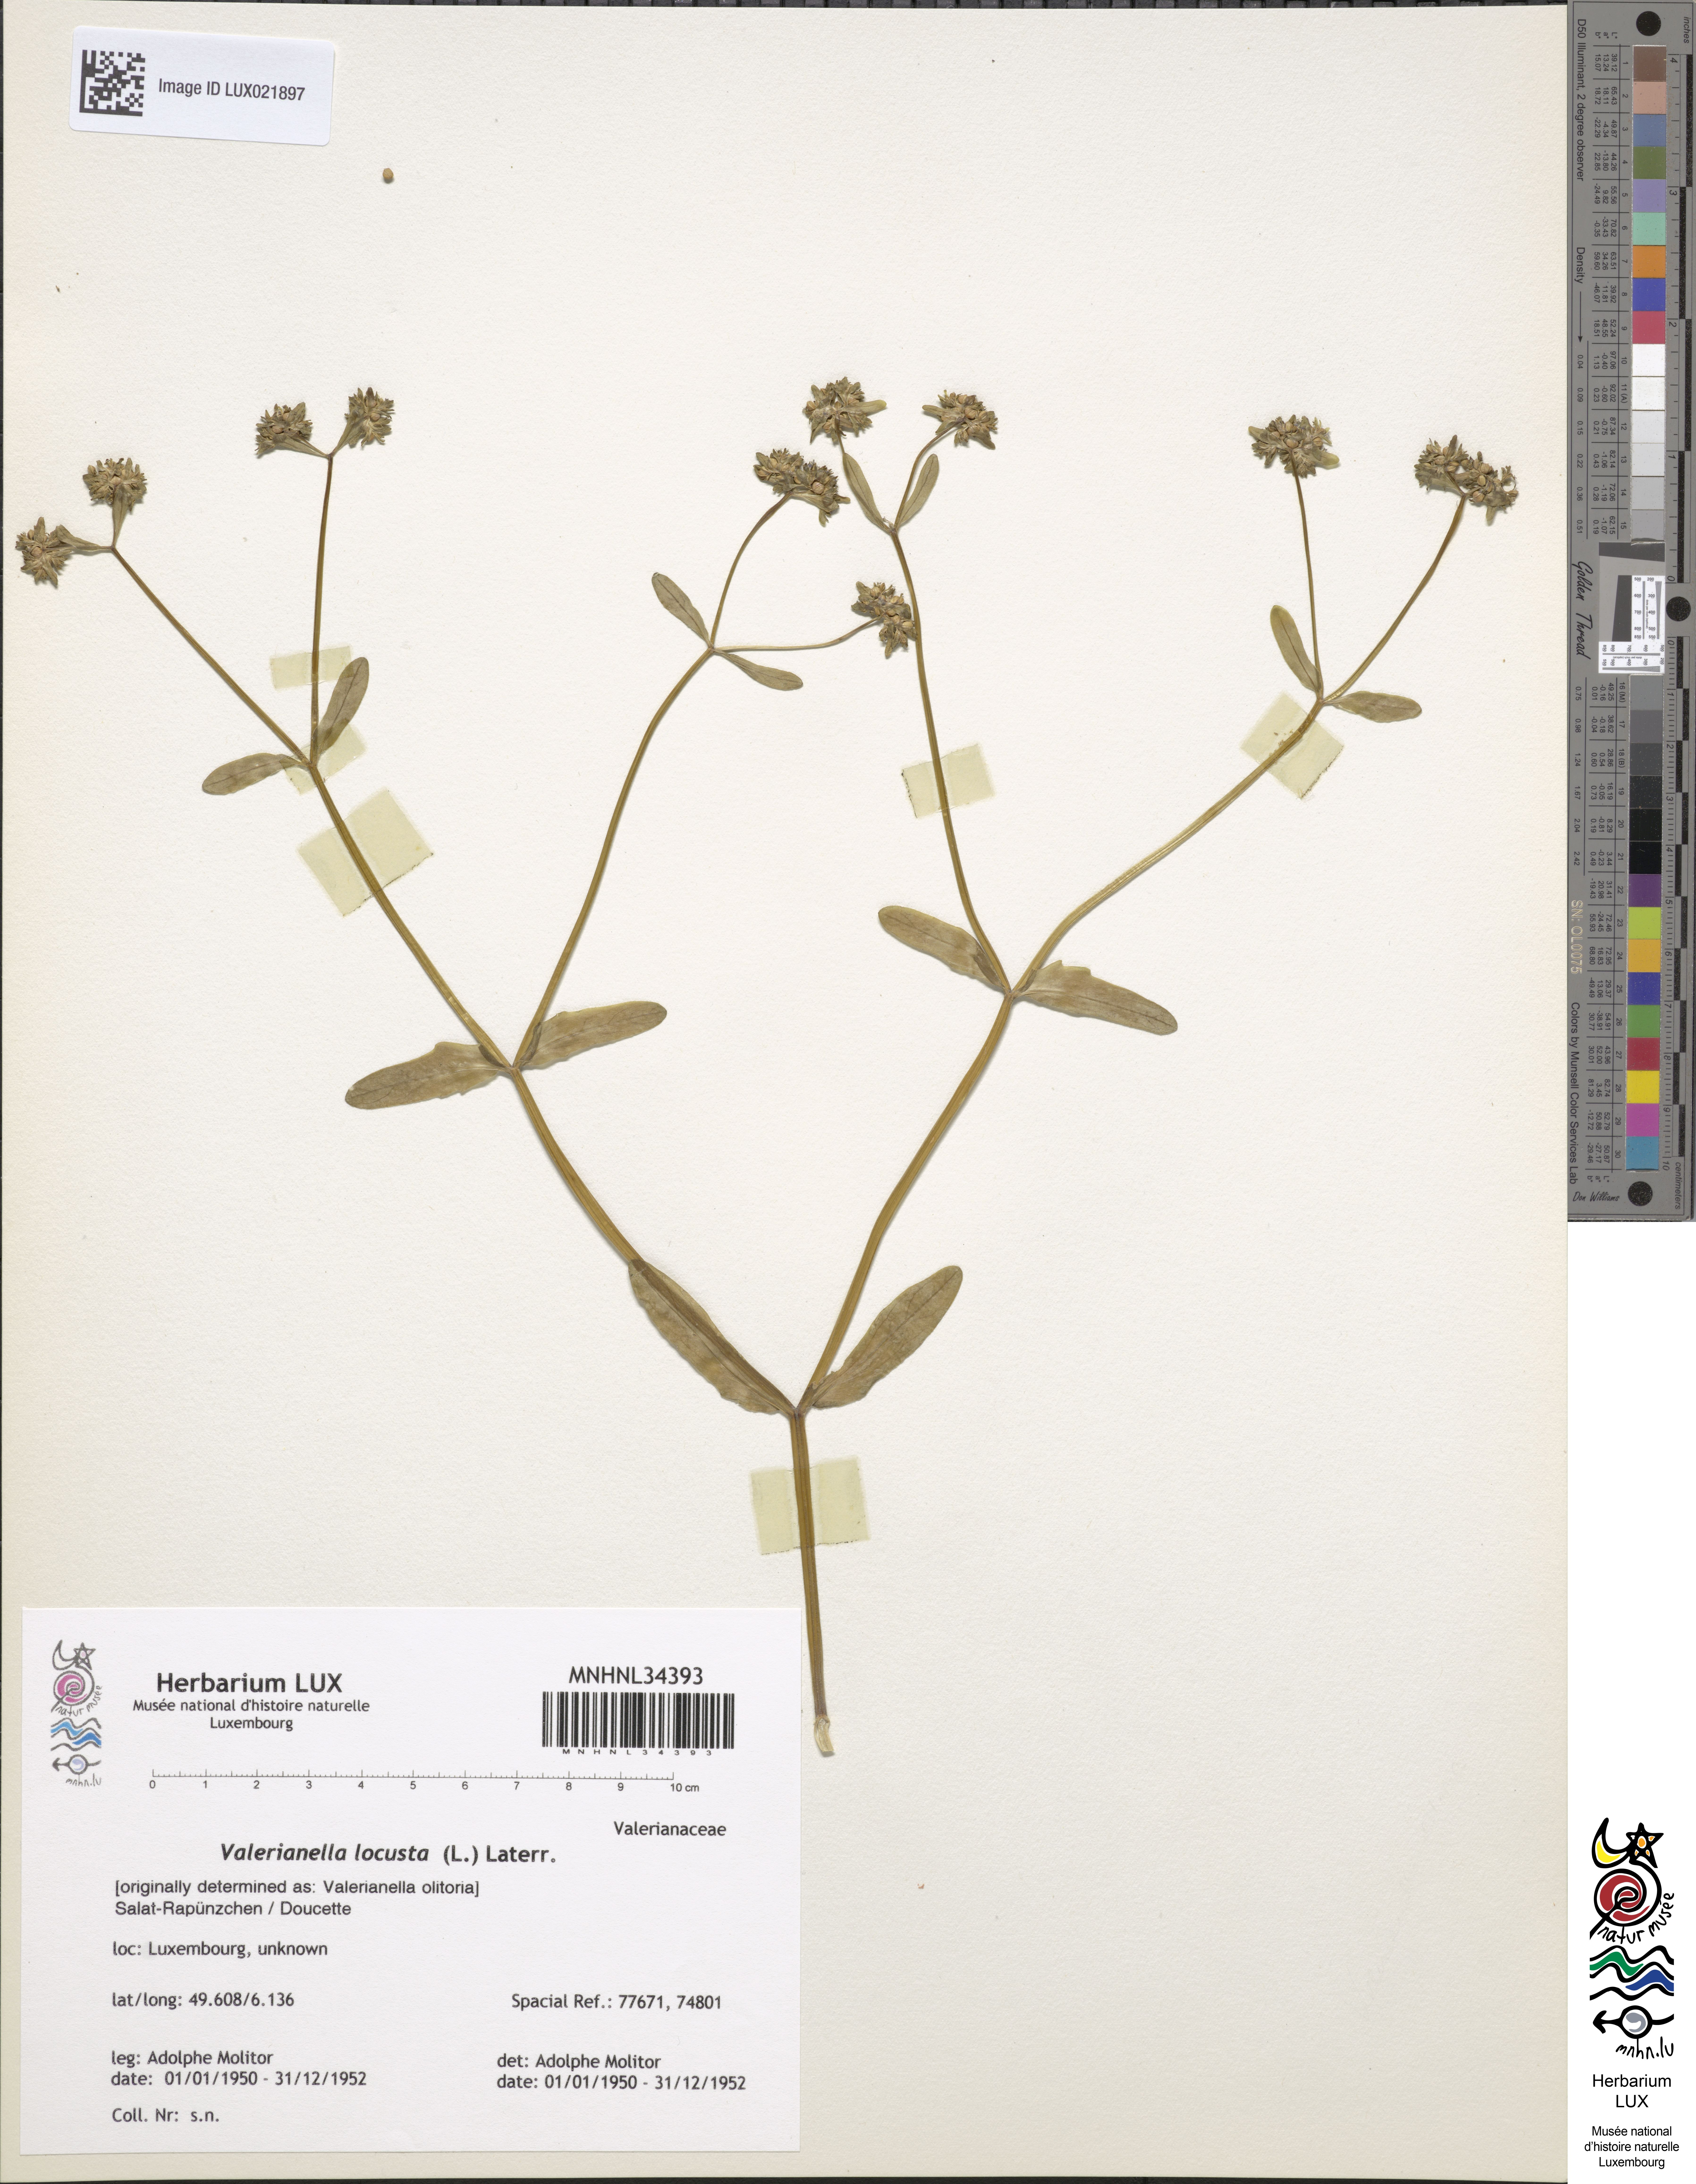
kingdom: Plantae
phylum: Tracheophyta
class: Magnoliopsida
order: Dipsacales
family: Caprifoliaceae
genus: Valerianella
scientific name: Valerianella locusta
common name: Common cornsalad
